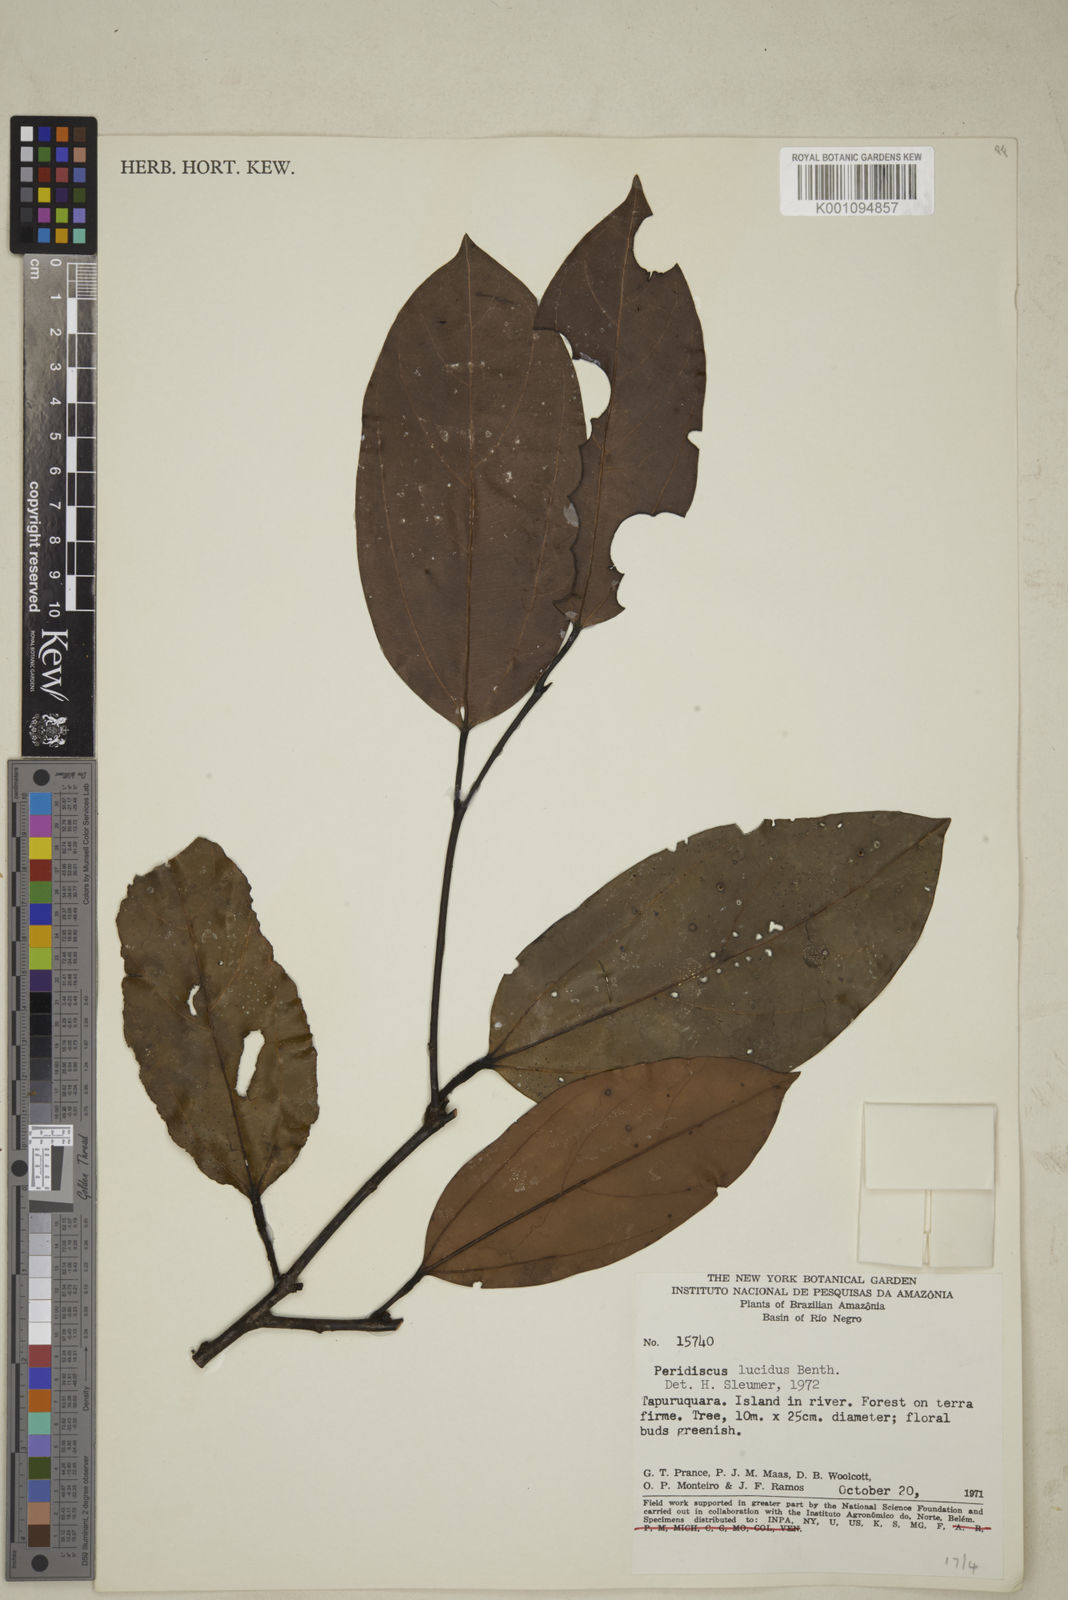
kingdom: Plantae
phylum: Tracheophyta
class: Magnoliopsida
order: Saxifragales
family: Peridiscaceae
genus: Peridiscus
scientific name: Peridiscus lucidus
